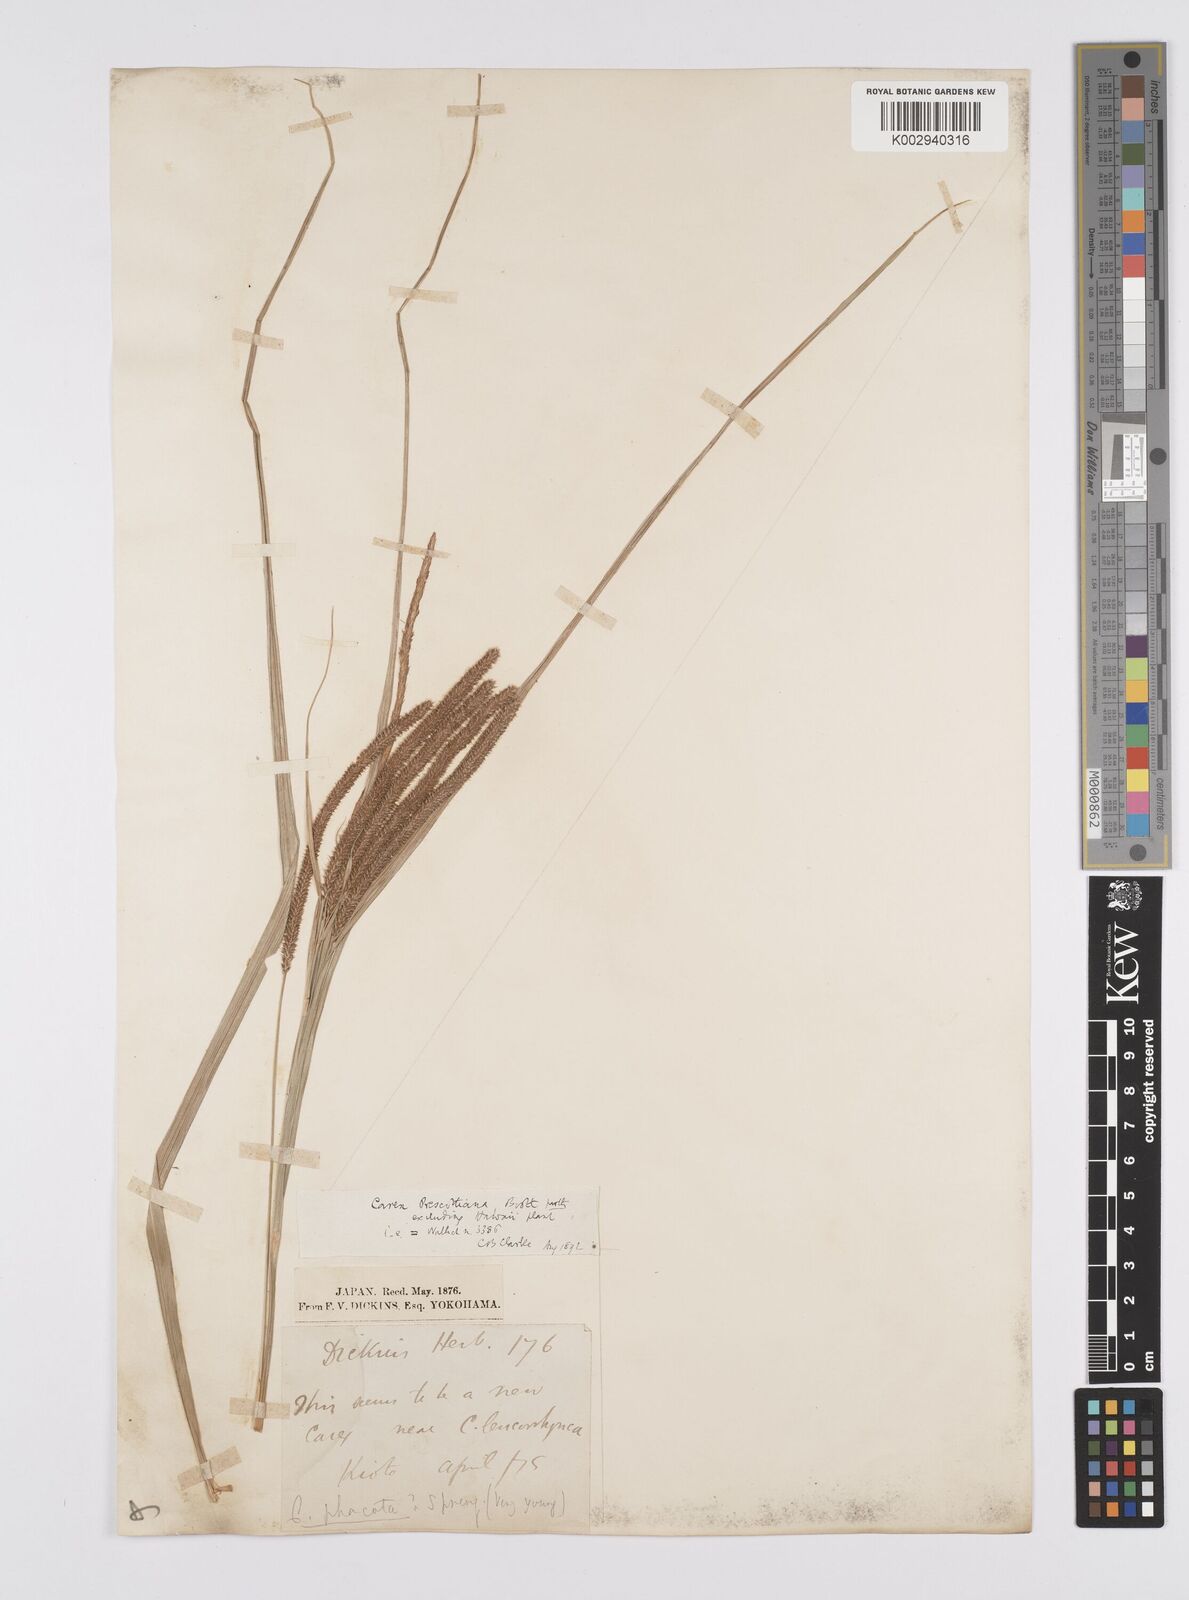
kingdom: Plantae
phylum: Tracheophyta
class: Liliopsida
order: Poales
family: Cyperaceae
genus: Carex
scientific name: Carex prescottiana
